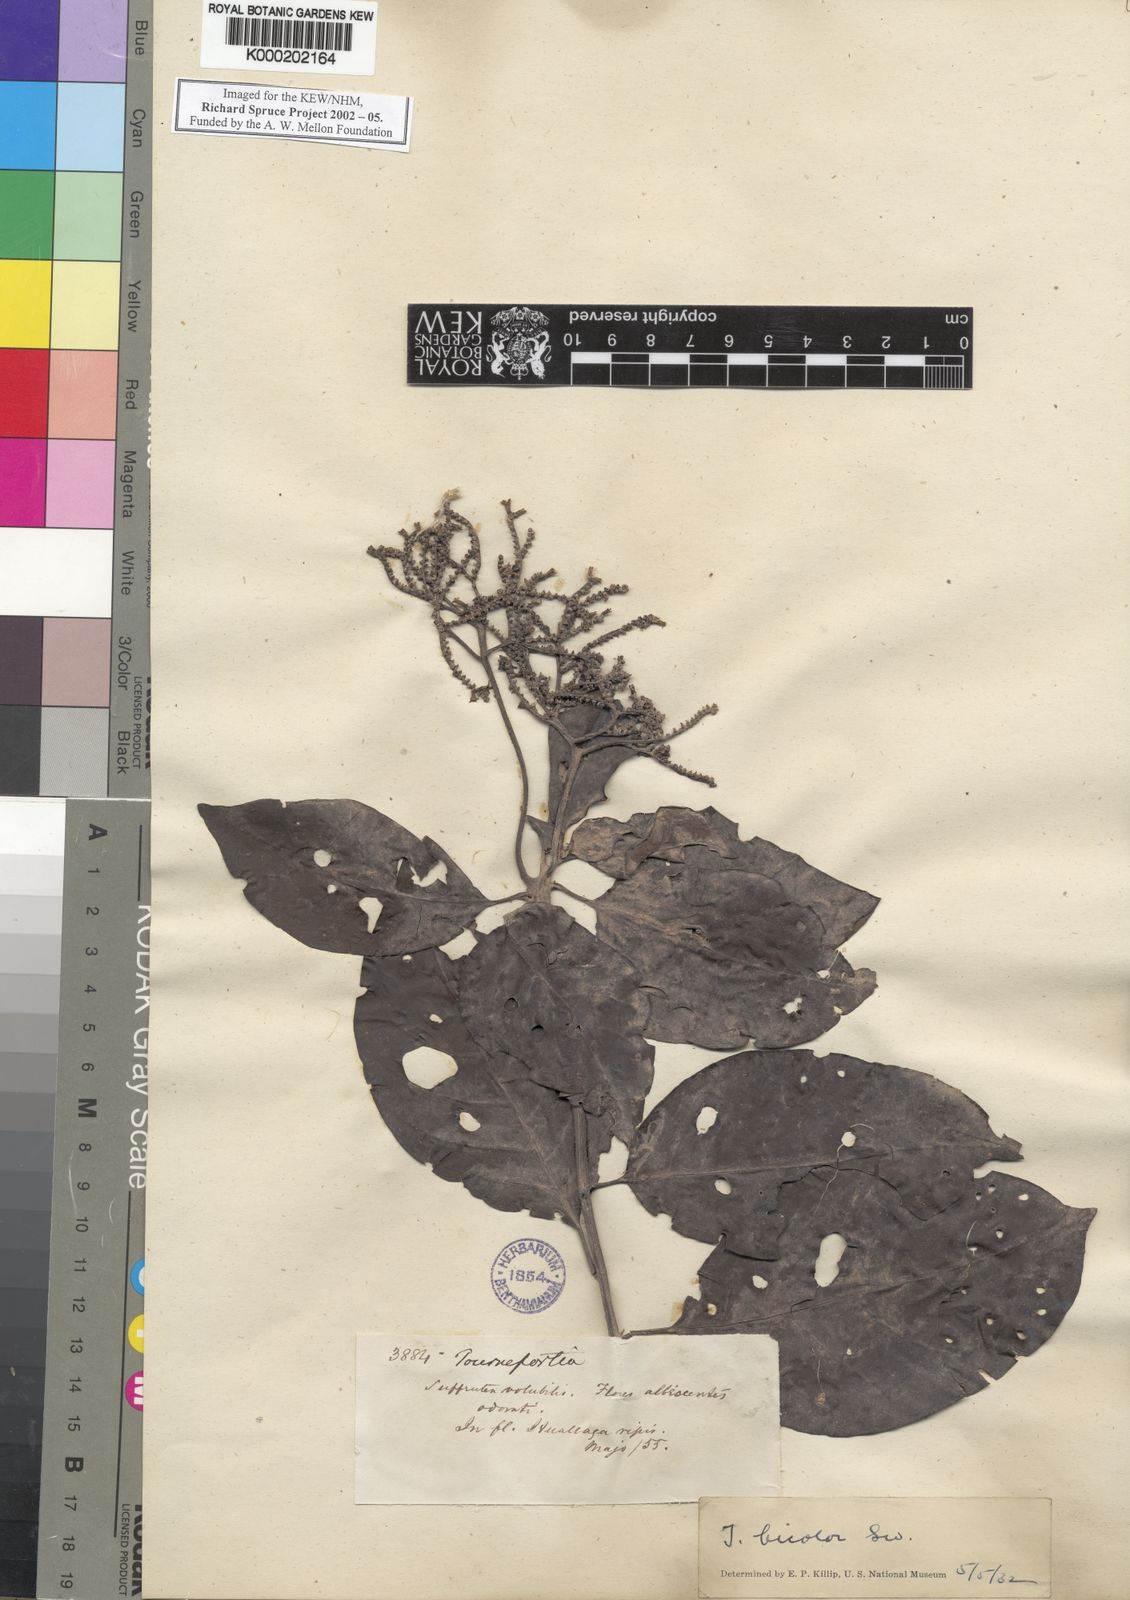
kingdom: Plantae
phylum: Tracheophyta
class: Magnoliopsida
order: Boraginales
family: Heliotropiaceae
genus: Heliotropium
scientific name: Heliotropium verdcourtii
